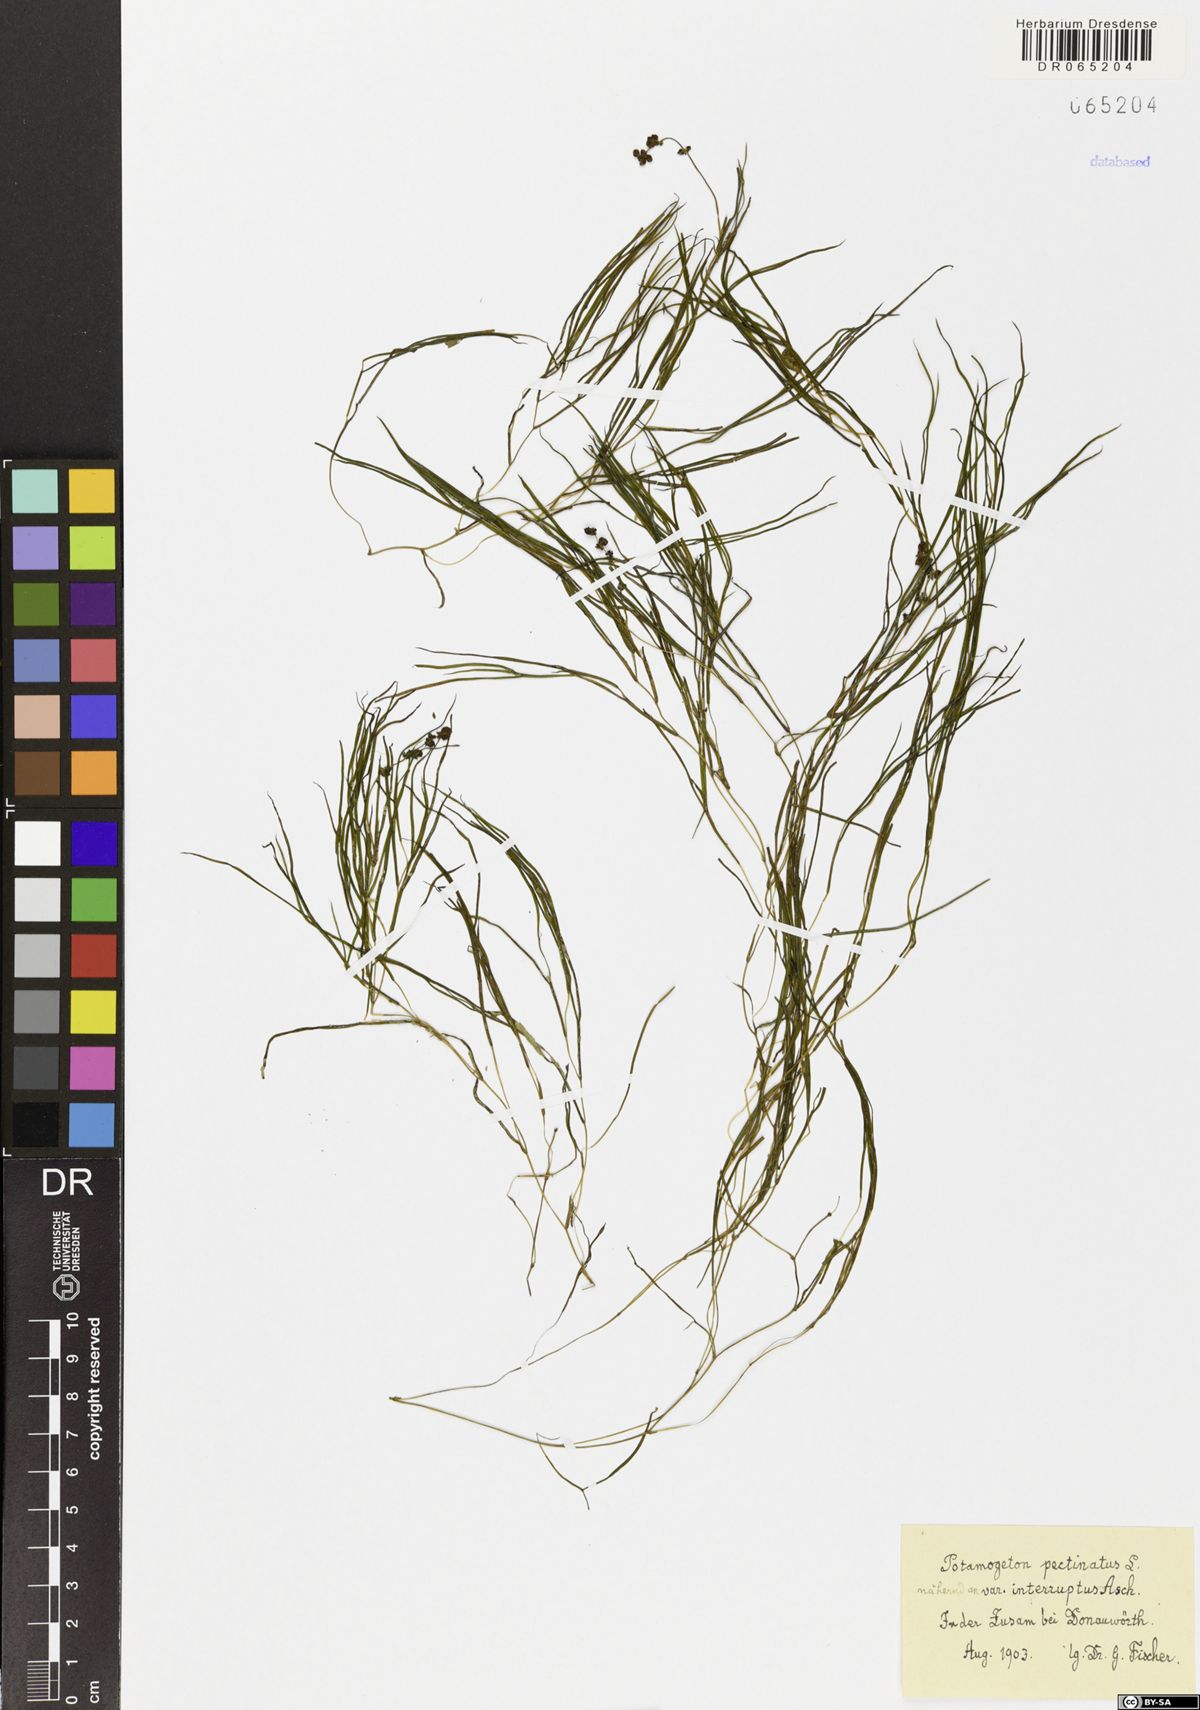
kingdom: Plantae
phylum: Tracheophyta
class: Liliopsida
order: Alismatales
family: Potamogetonaceae
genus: Stuckenia
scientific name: Stuckenia pectinata
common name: Sago pondweed
